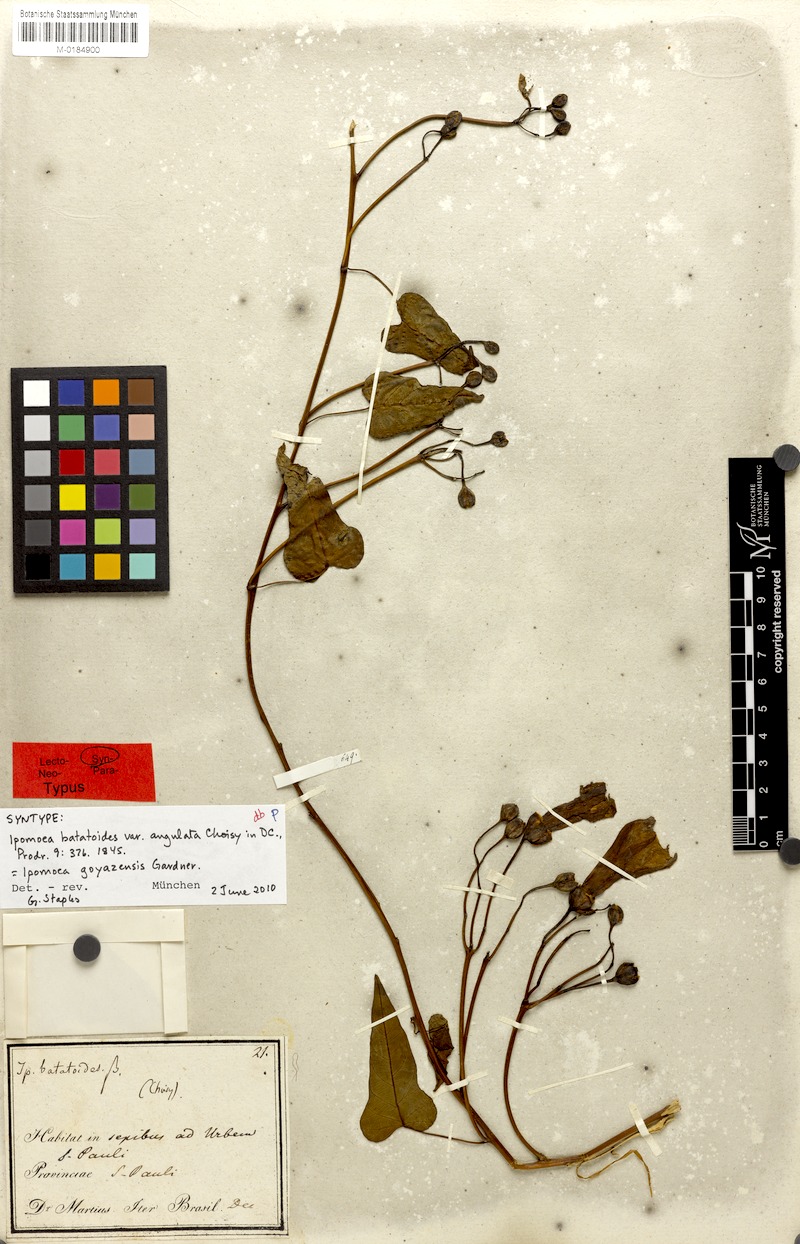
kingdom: Plantae
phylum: Tracheophyta
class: Magnoliopsida
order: Solanales
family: Convolvulaceae
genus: Ipomoea
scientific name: Ipomoea goyazensis
